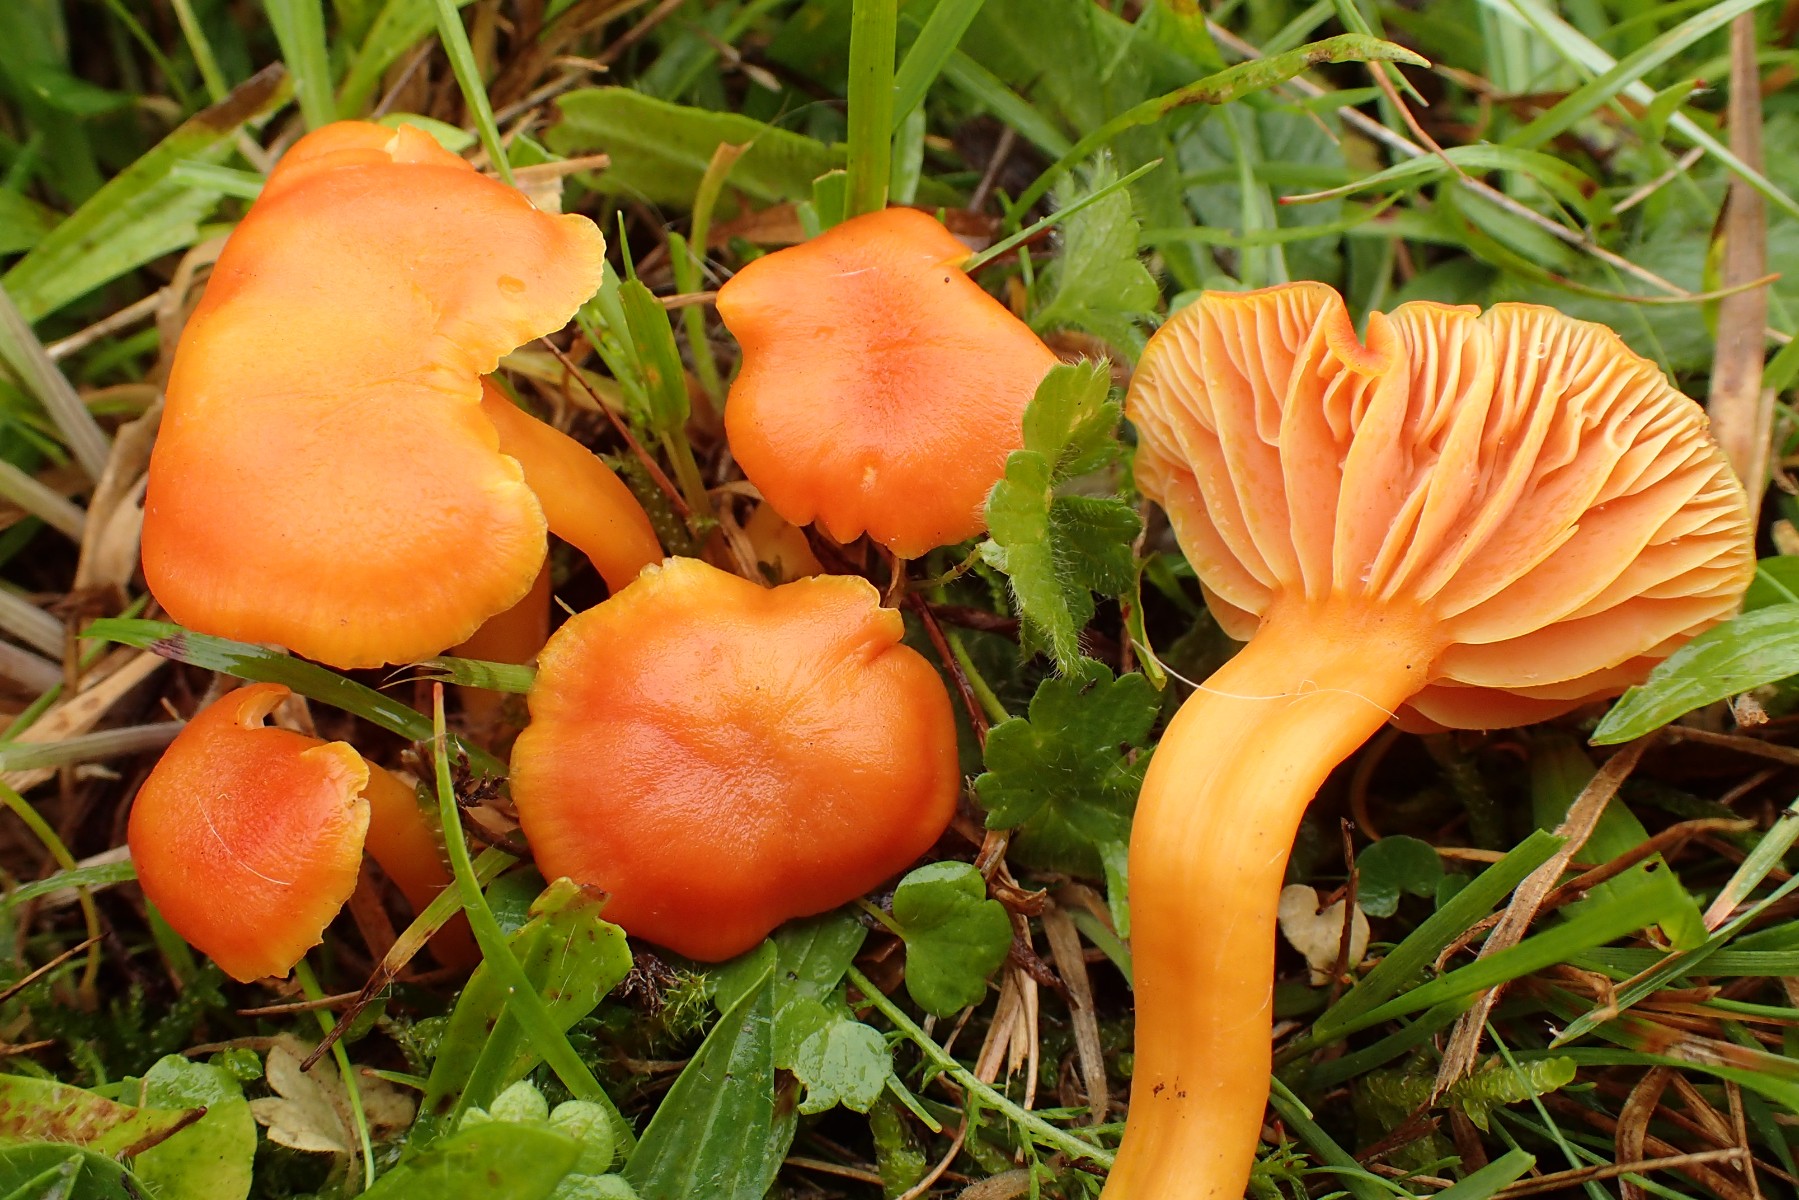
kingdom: Fungi
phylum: Basidiomycota
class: Agaricomycetes
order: Agaricales
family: Hygrophoraceae
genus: Hygrocybe
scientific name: Hygrocybe reidii
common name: honning-vokshat
